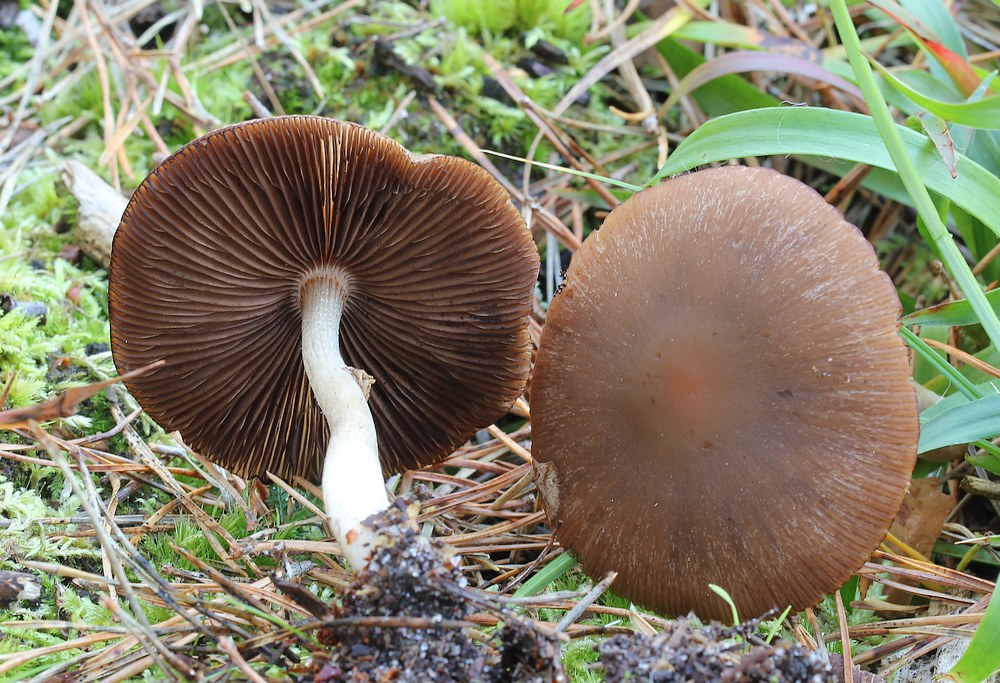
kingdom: Fungi
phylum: Basidiomycota
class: Agaricomycetes
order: Agaricales
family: Psathyrellaceae
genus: Psathyrella
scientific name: Psathyrella
